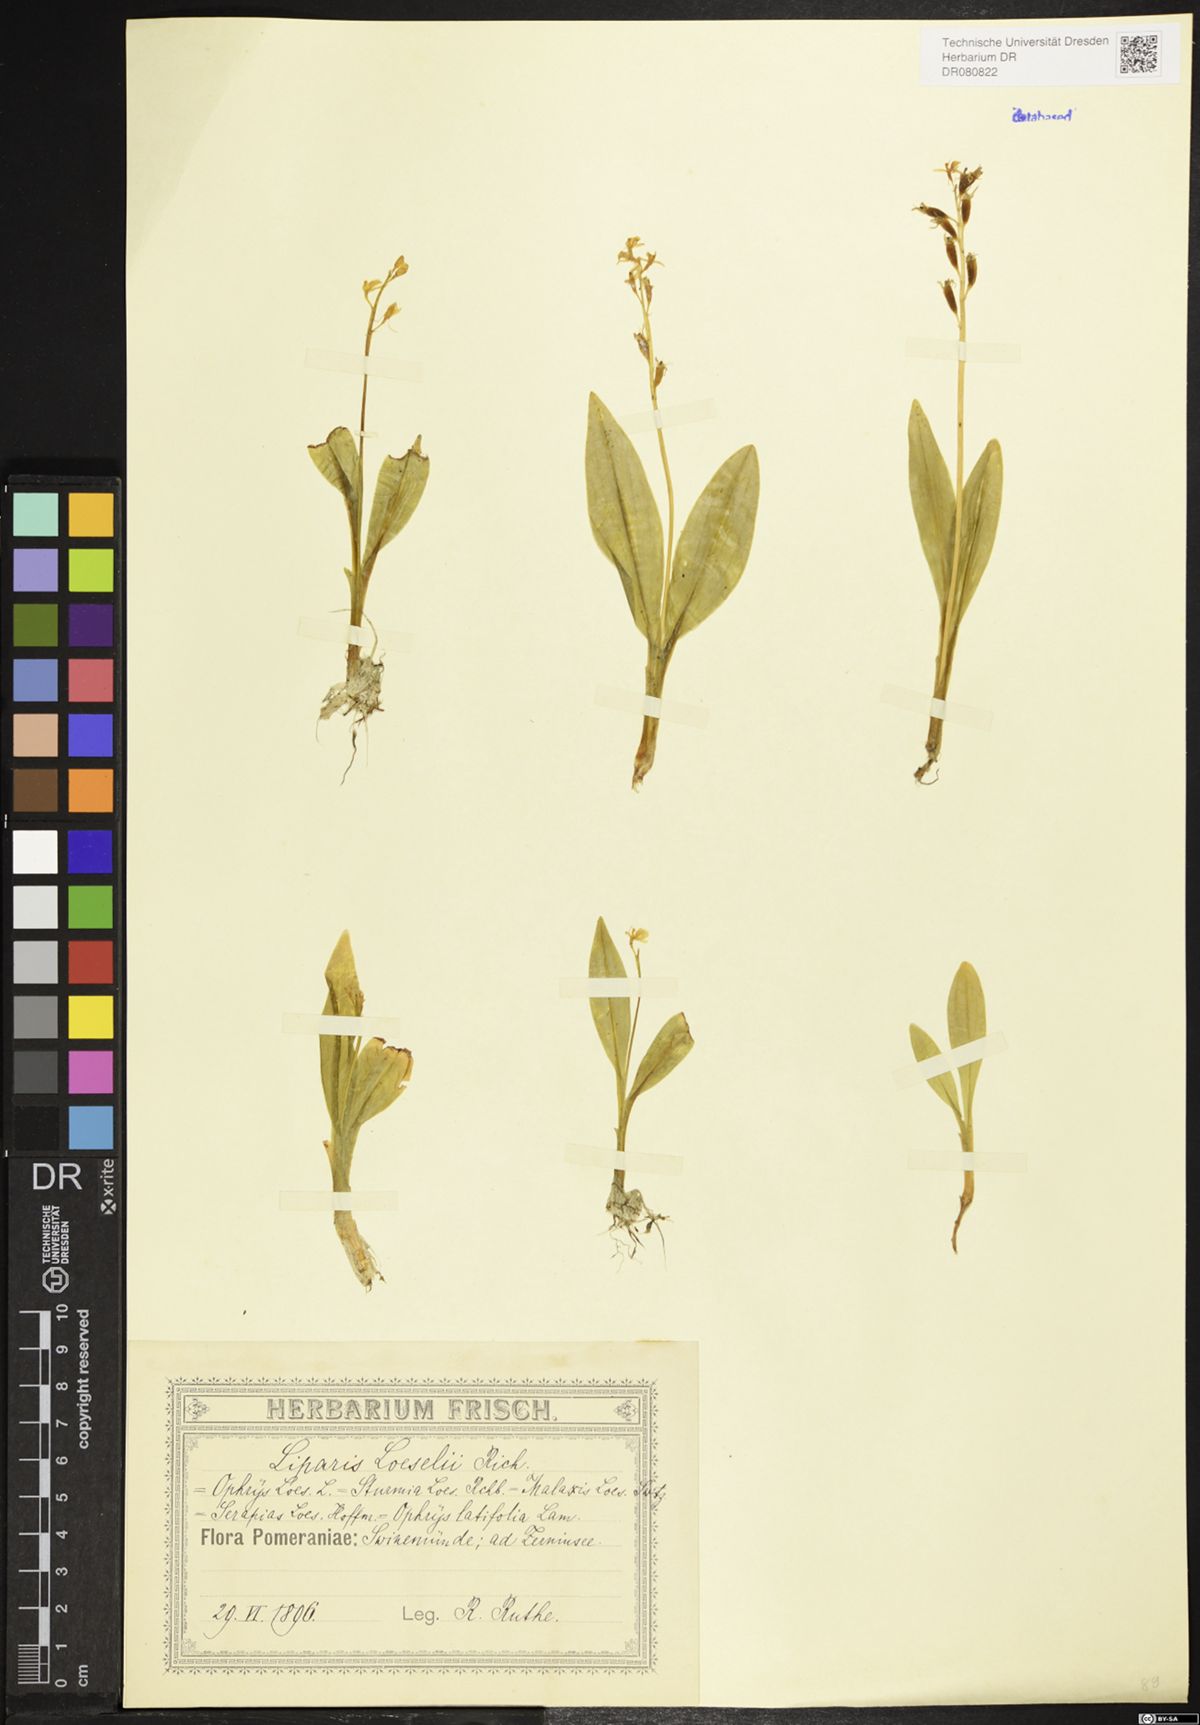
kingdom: Animalia
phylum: Arthropoda
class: Insecta
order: Coleoptera
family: Curculionidae
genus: Liparis
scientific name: Liparis loeselii
